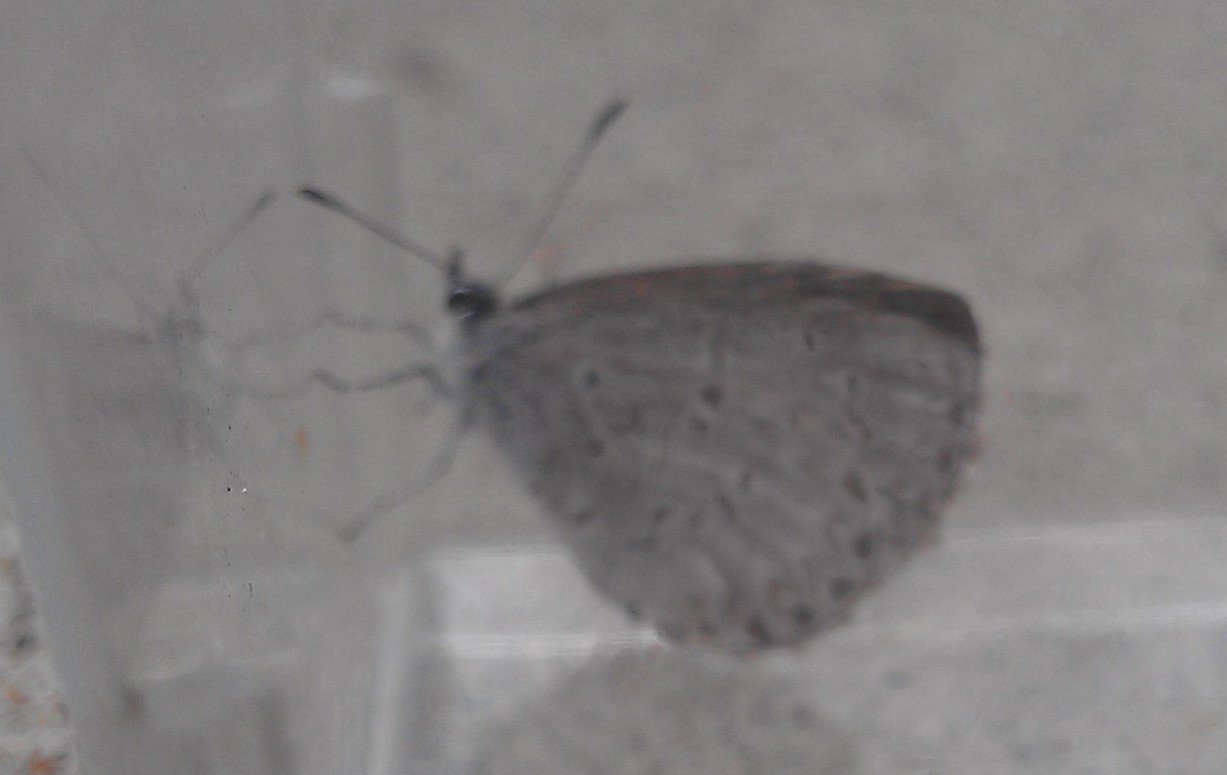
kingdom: Animalia
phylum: Arthropoda
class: Insecta
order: Lepidoptera
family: Lycaenidae
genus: Celastrina
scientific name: Celastrina lucia
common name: Northern Spring Azure
